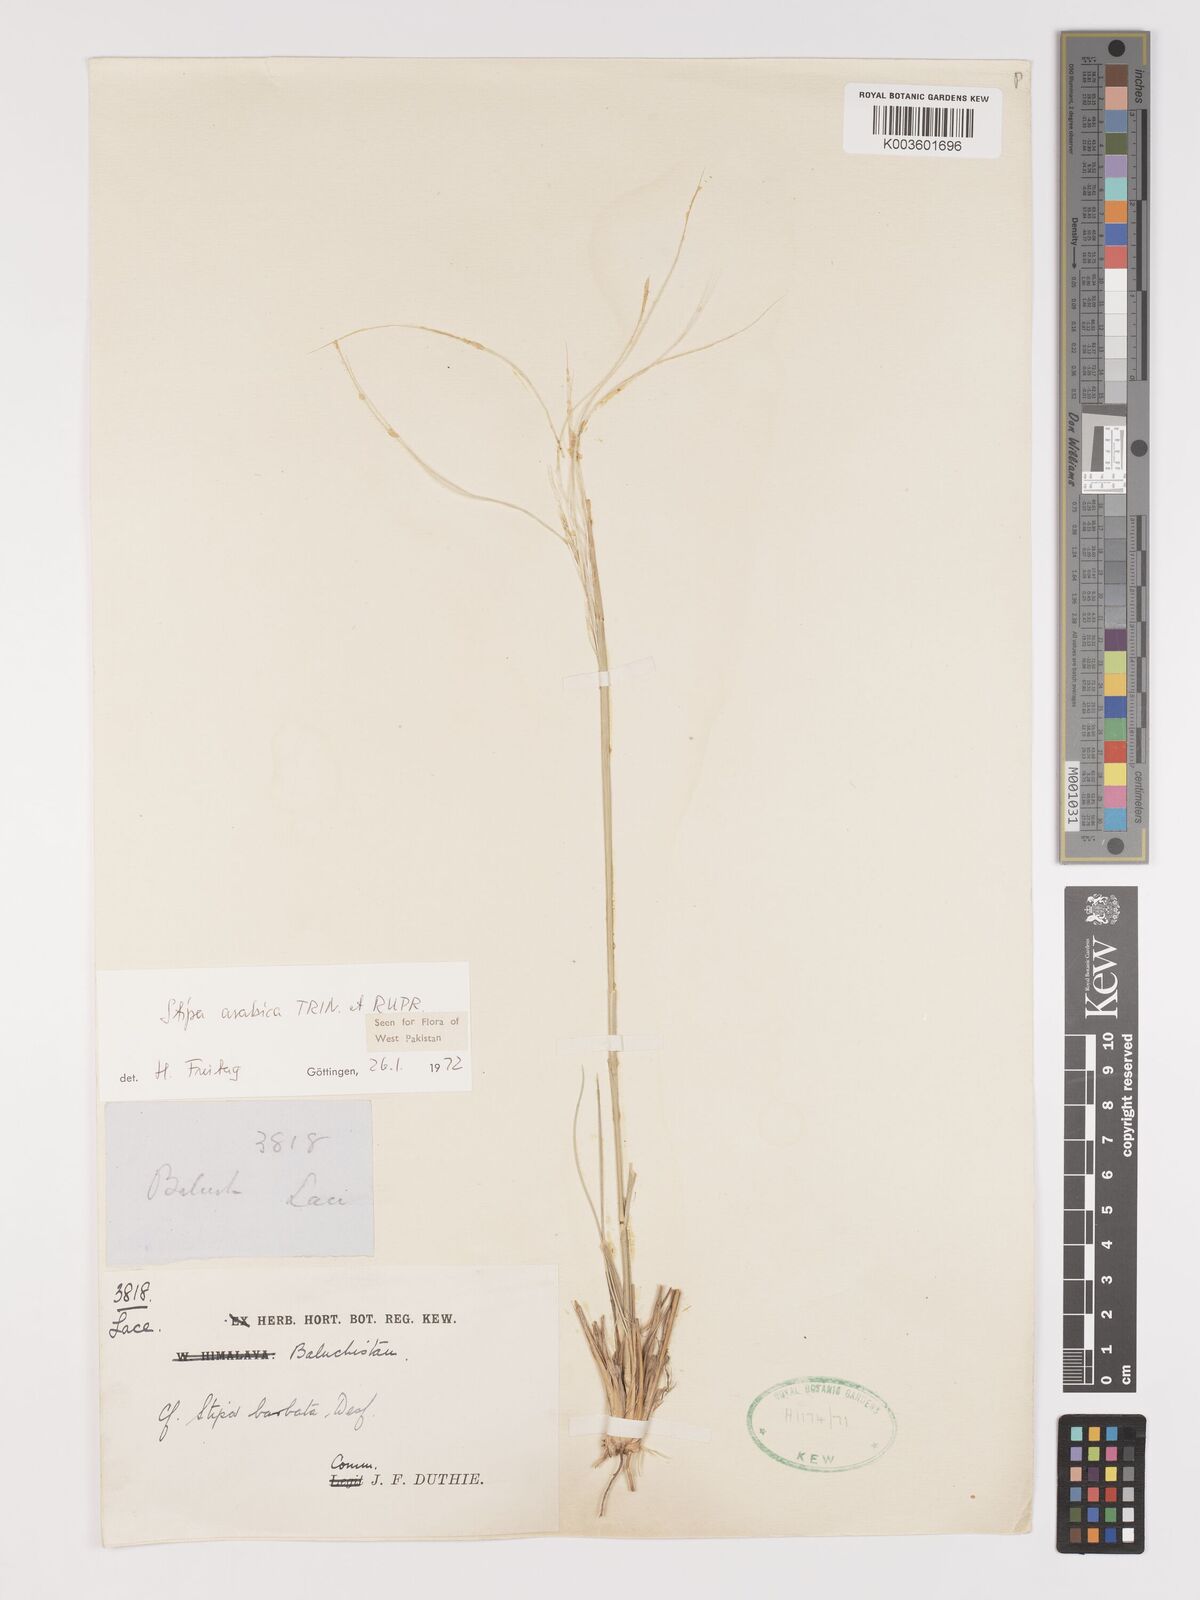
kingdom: Plantae
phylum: Tracheophyta
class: Liliopsida
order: Poales
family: Poaceae
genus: Stipa
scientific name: Stipa arabica
